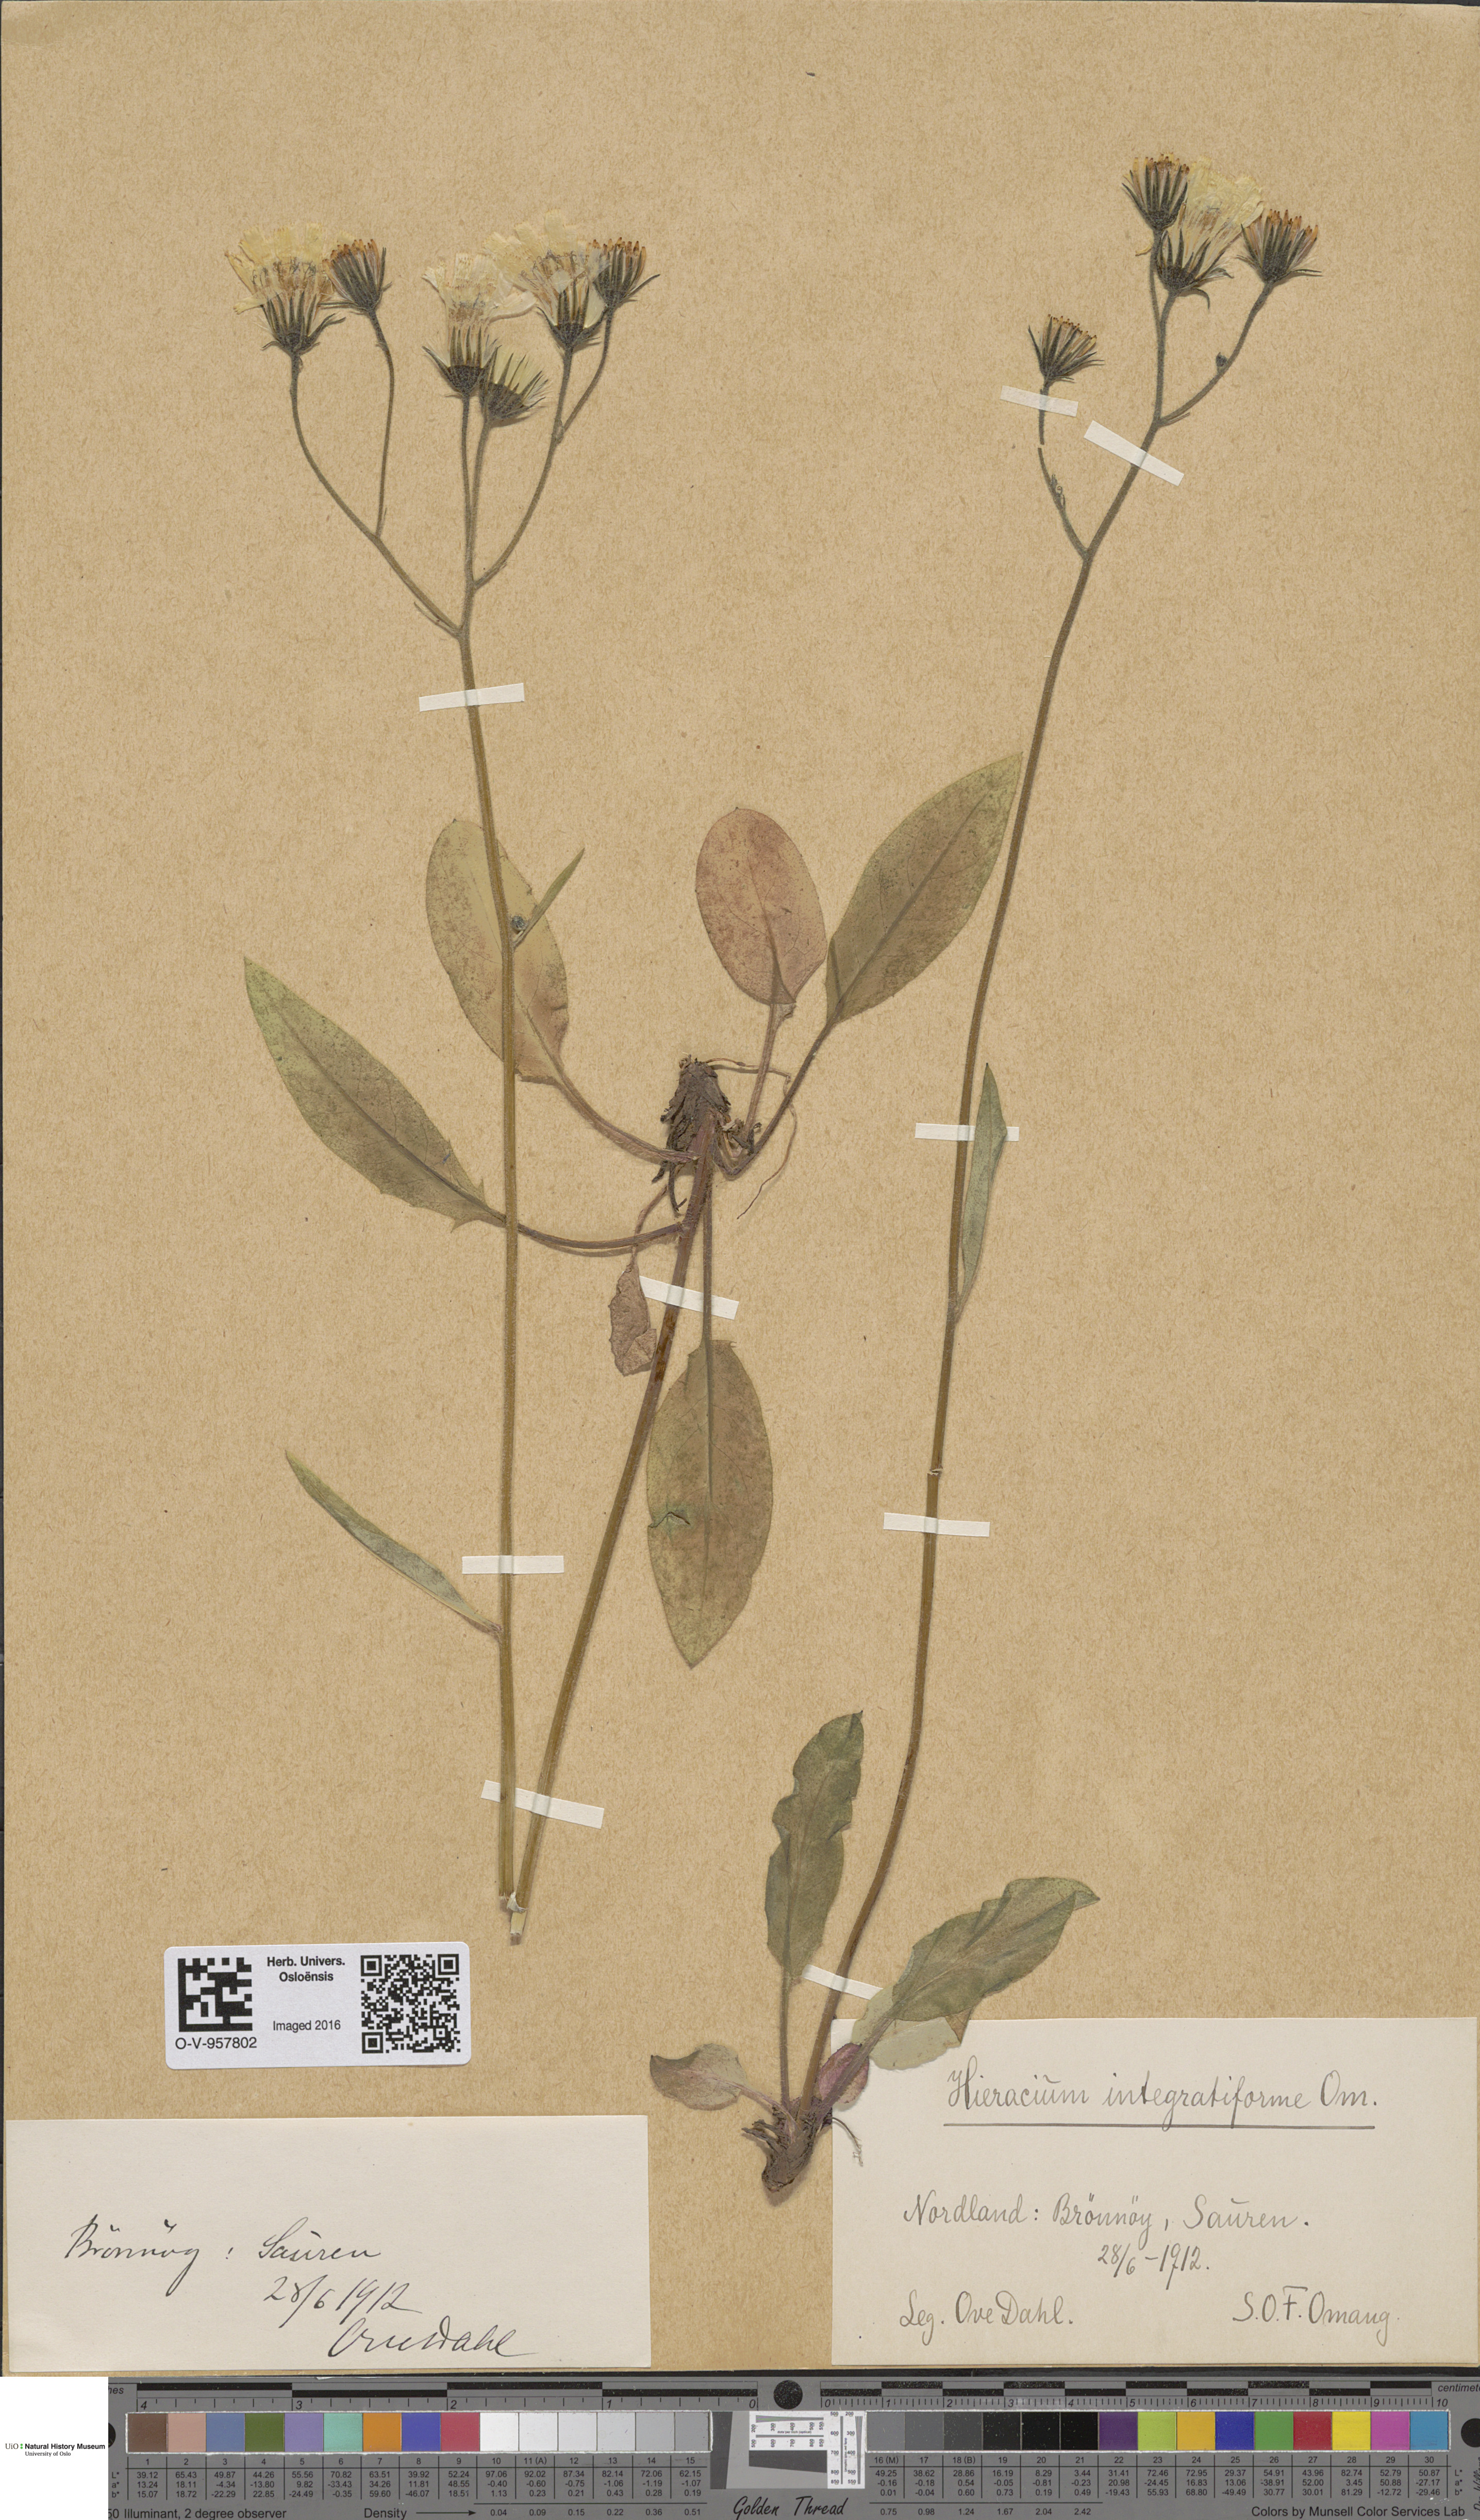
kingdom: Plantae
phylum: Tracheophyta
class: Magnoliopsida
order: Asterales
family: Asteraceae
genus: Hieracium
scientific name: Hieracium integratiforme
